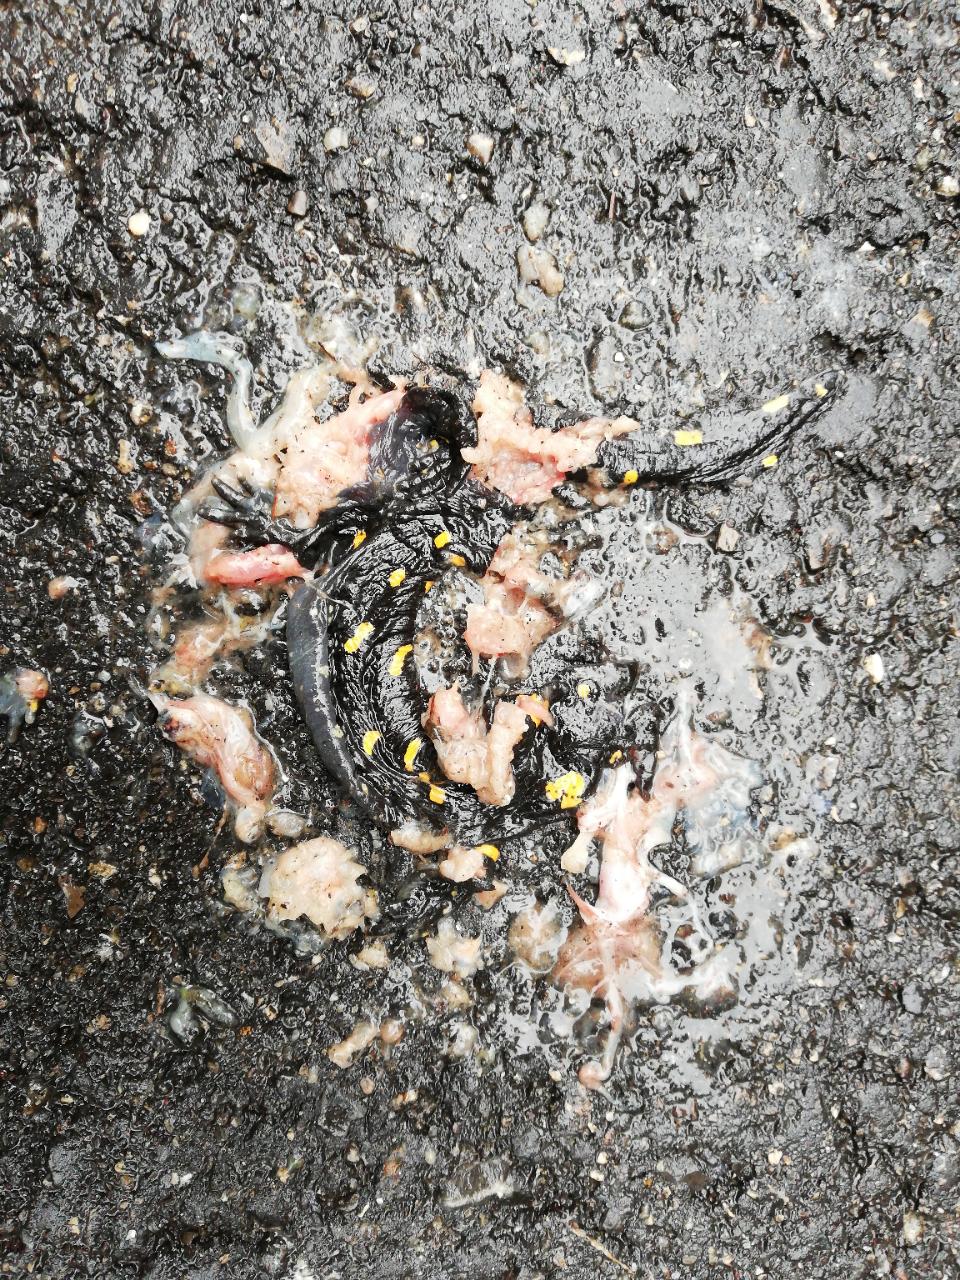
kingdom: Animalia
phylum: Chordata
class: Amphibia
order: Caudata
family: Salamandridae
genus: Salamandra
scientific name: Salamandra salamandra
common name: Fire salamander
